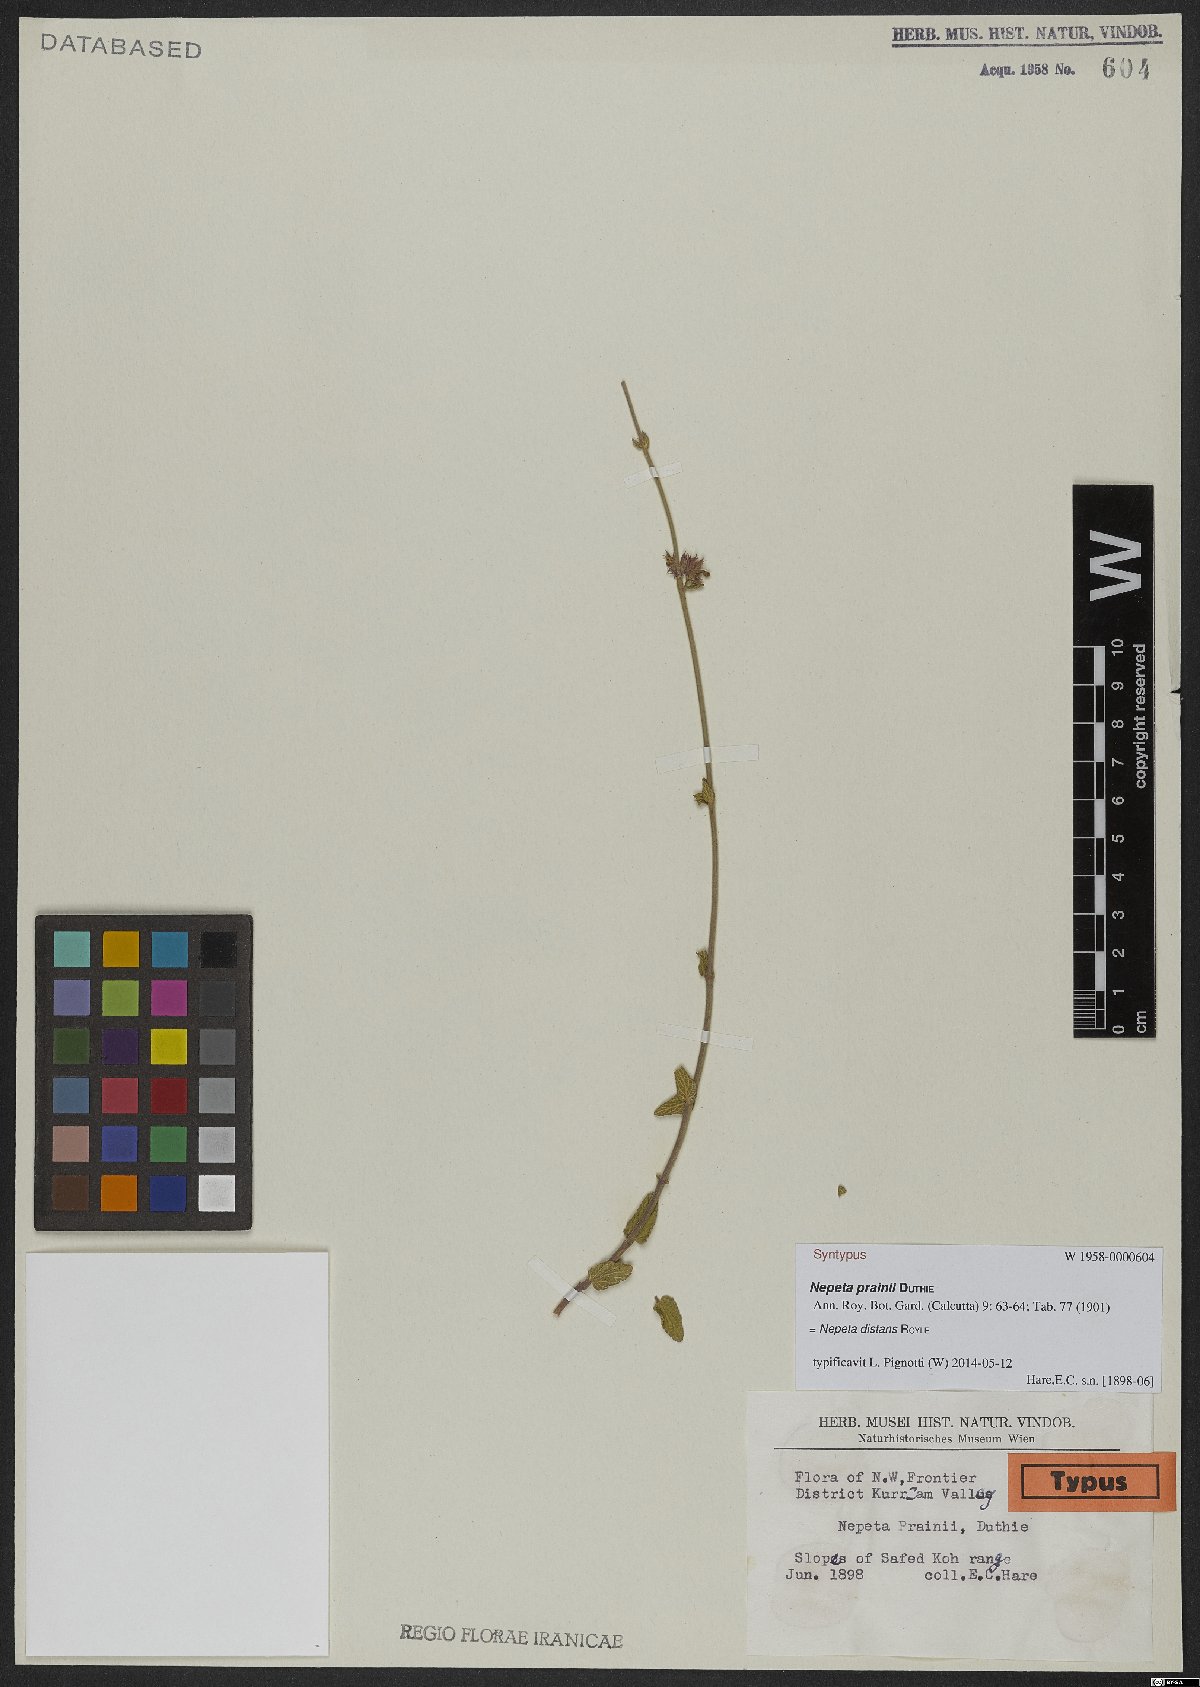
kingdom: Plantae
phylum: Tracheophyta
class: Magnoliopsida
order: Lamiales
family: Lamiaceae
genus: Nepeta
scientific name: Nepeta distans
